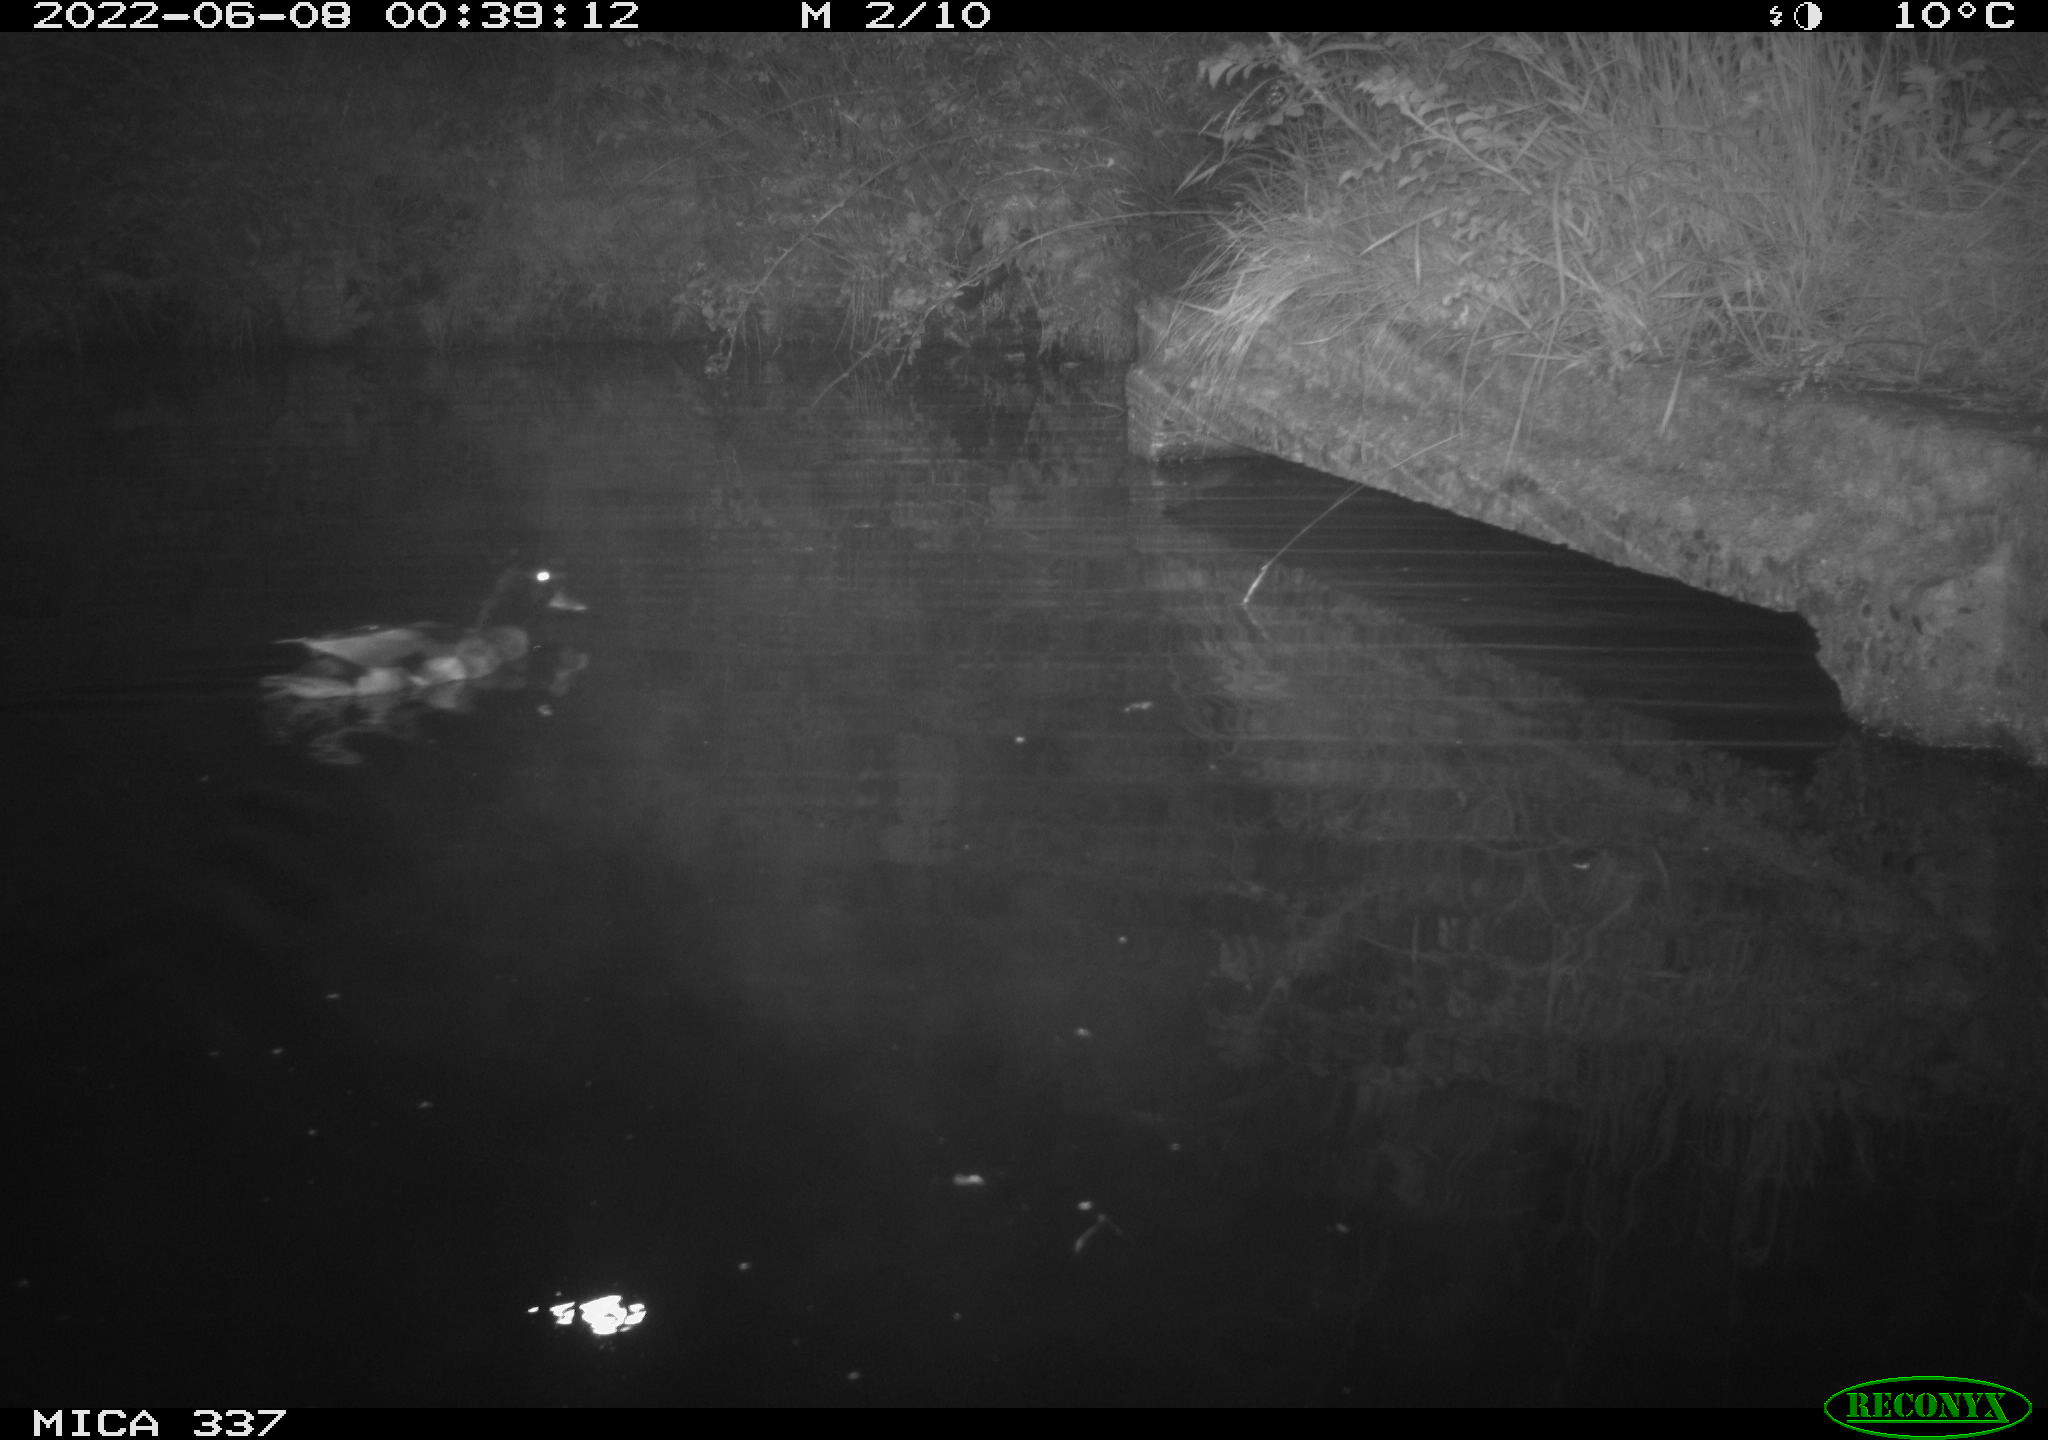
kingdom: Animalia
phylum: Chordata
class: Aves
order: Anseriformes
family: Anatidae
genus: Anas
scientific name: Anas platyrhynchos
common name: Mallard
